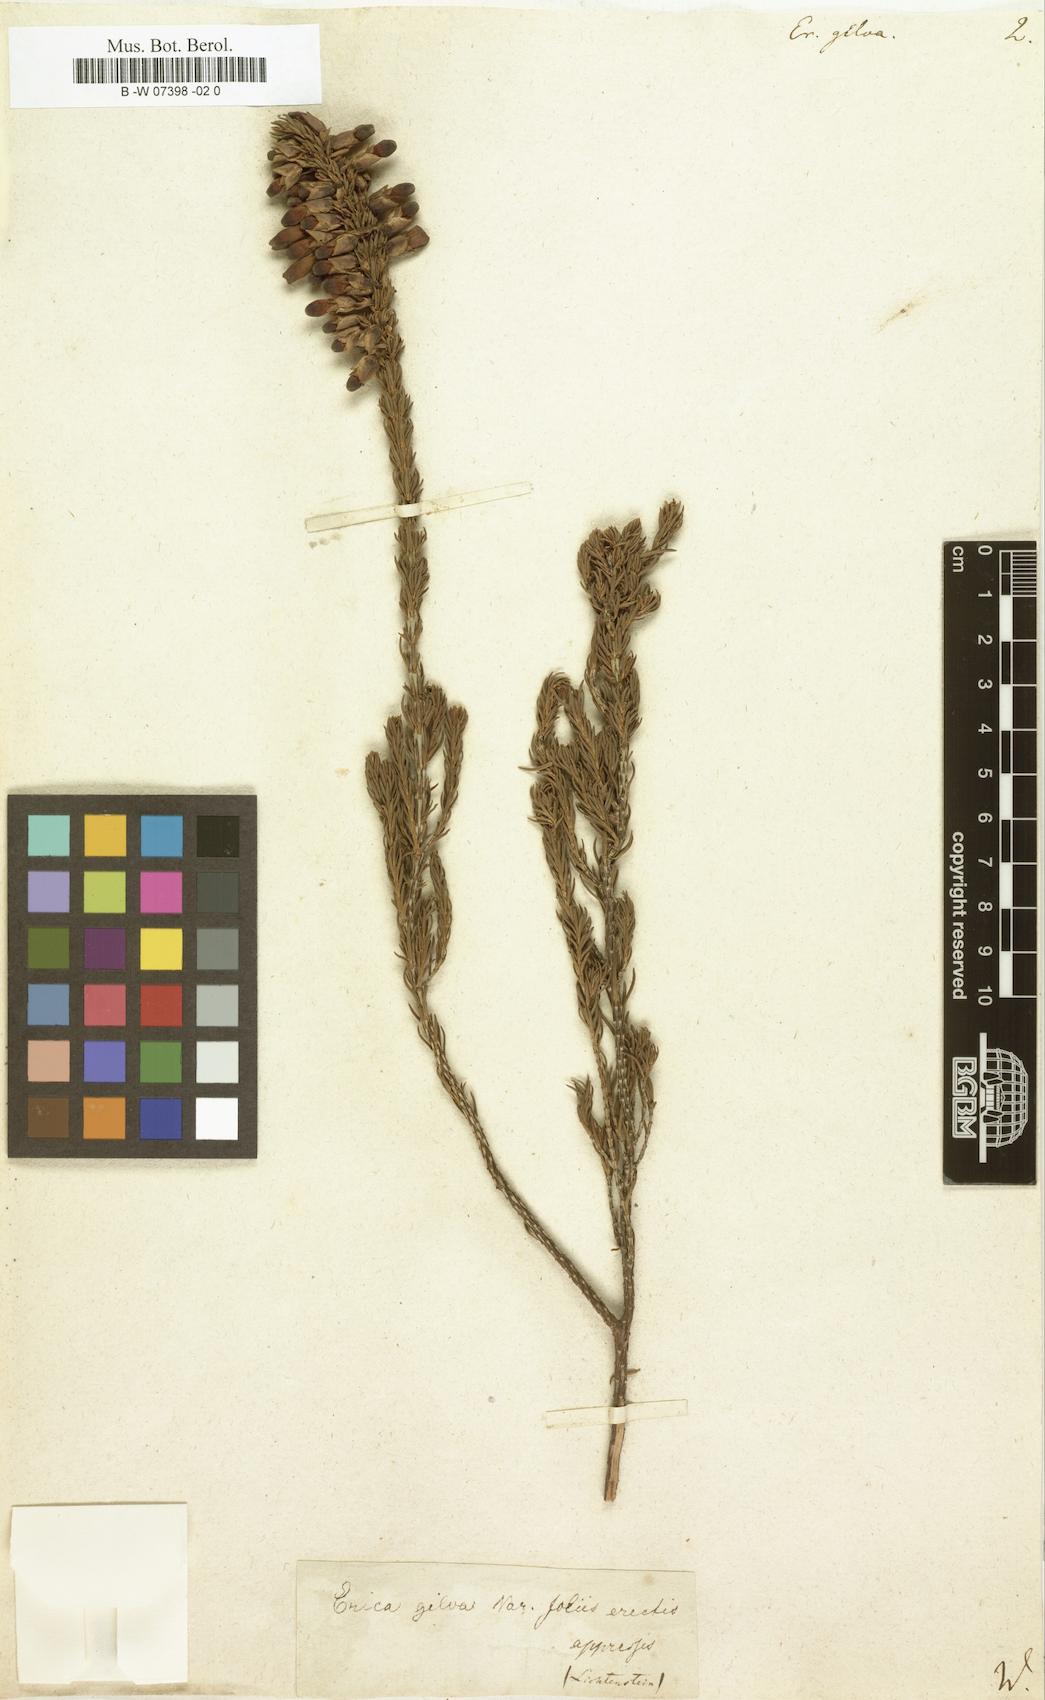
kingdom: Plantae
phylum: Tracheophyta
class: Magnoliopsida
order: Ericales
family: Ericaceae
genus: Erica
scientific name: Erica mammosa
